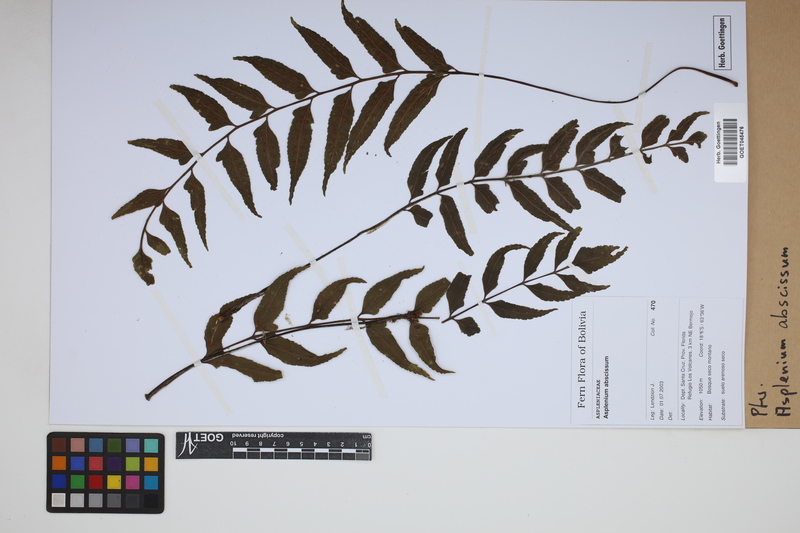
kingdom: Plantae
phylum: Tracheophyta
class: Polypodiopsida
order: Polypodiales
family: Aspleniaceae
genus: Asplenium
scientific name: Asplenium abscissum
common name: Cutleaf spleenwort
